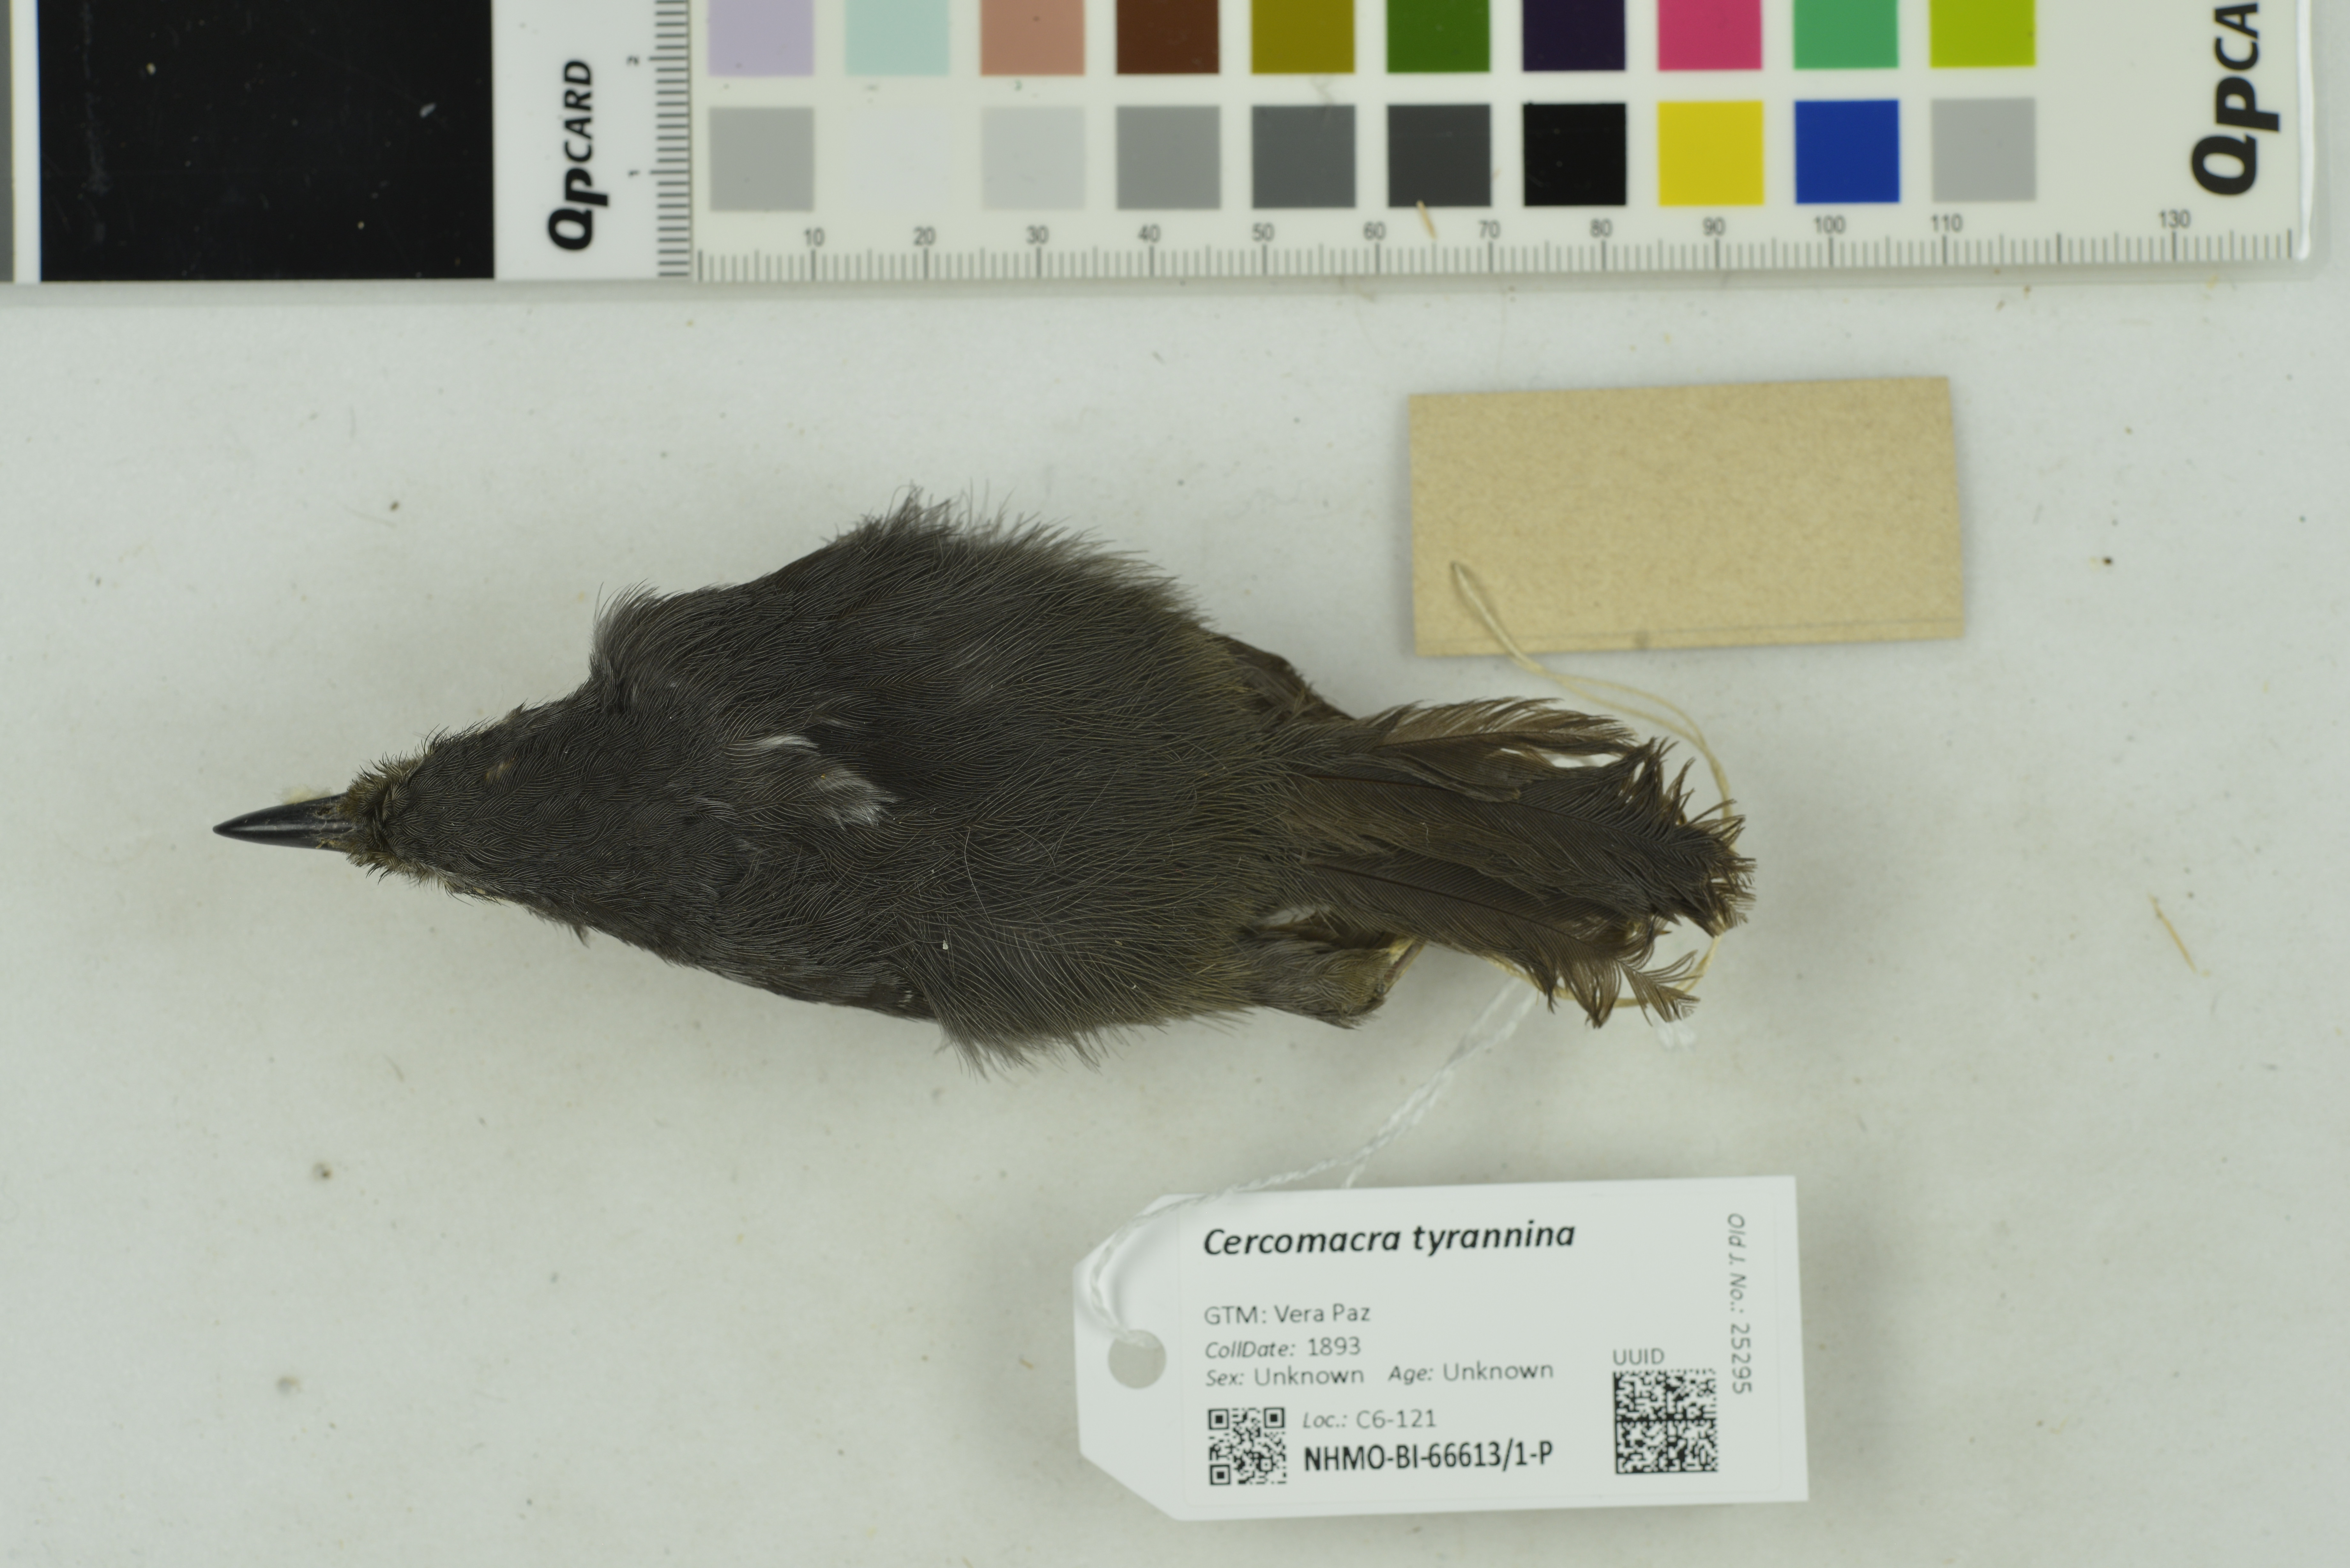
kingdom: Animalia
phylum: Chordata
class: Aves
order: Passeriformes
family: Thamnophilidae
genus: Cercomacra
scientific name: Cercomacra tyrannina
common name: Dusky antbird
